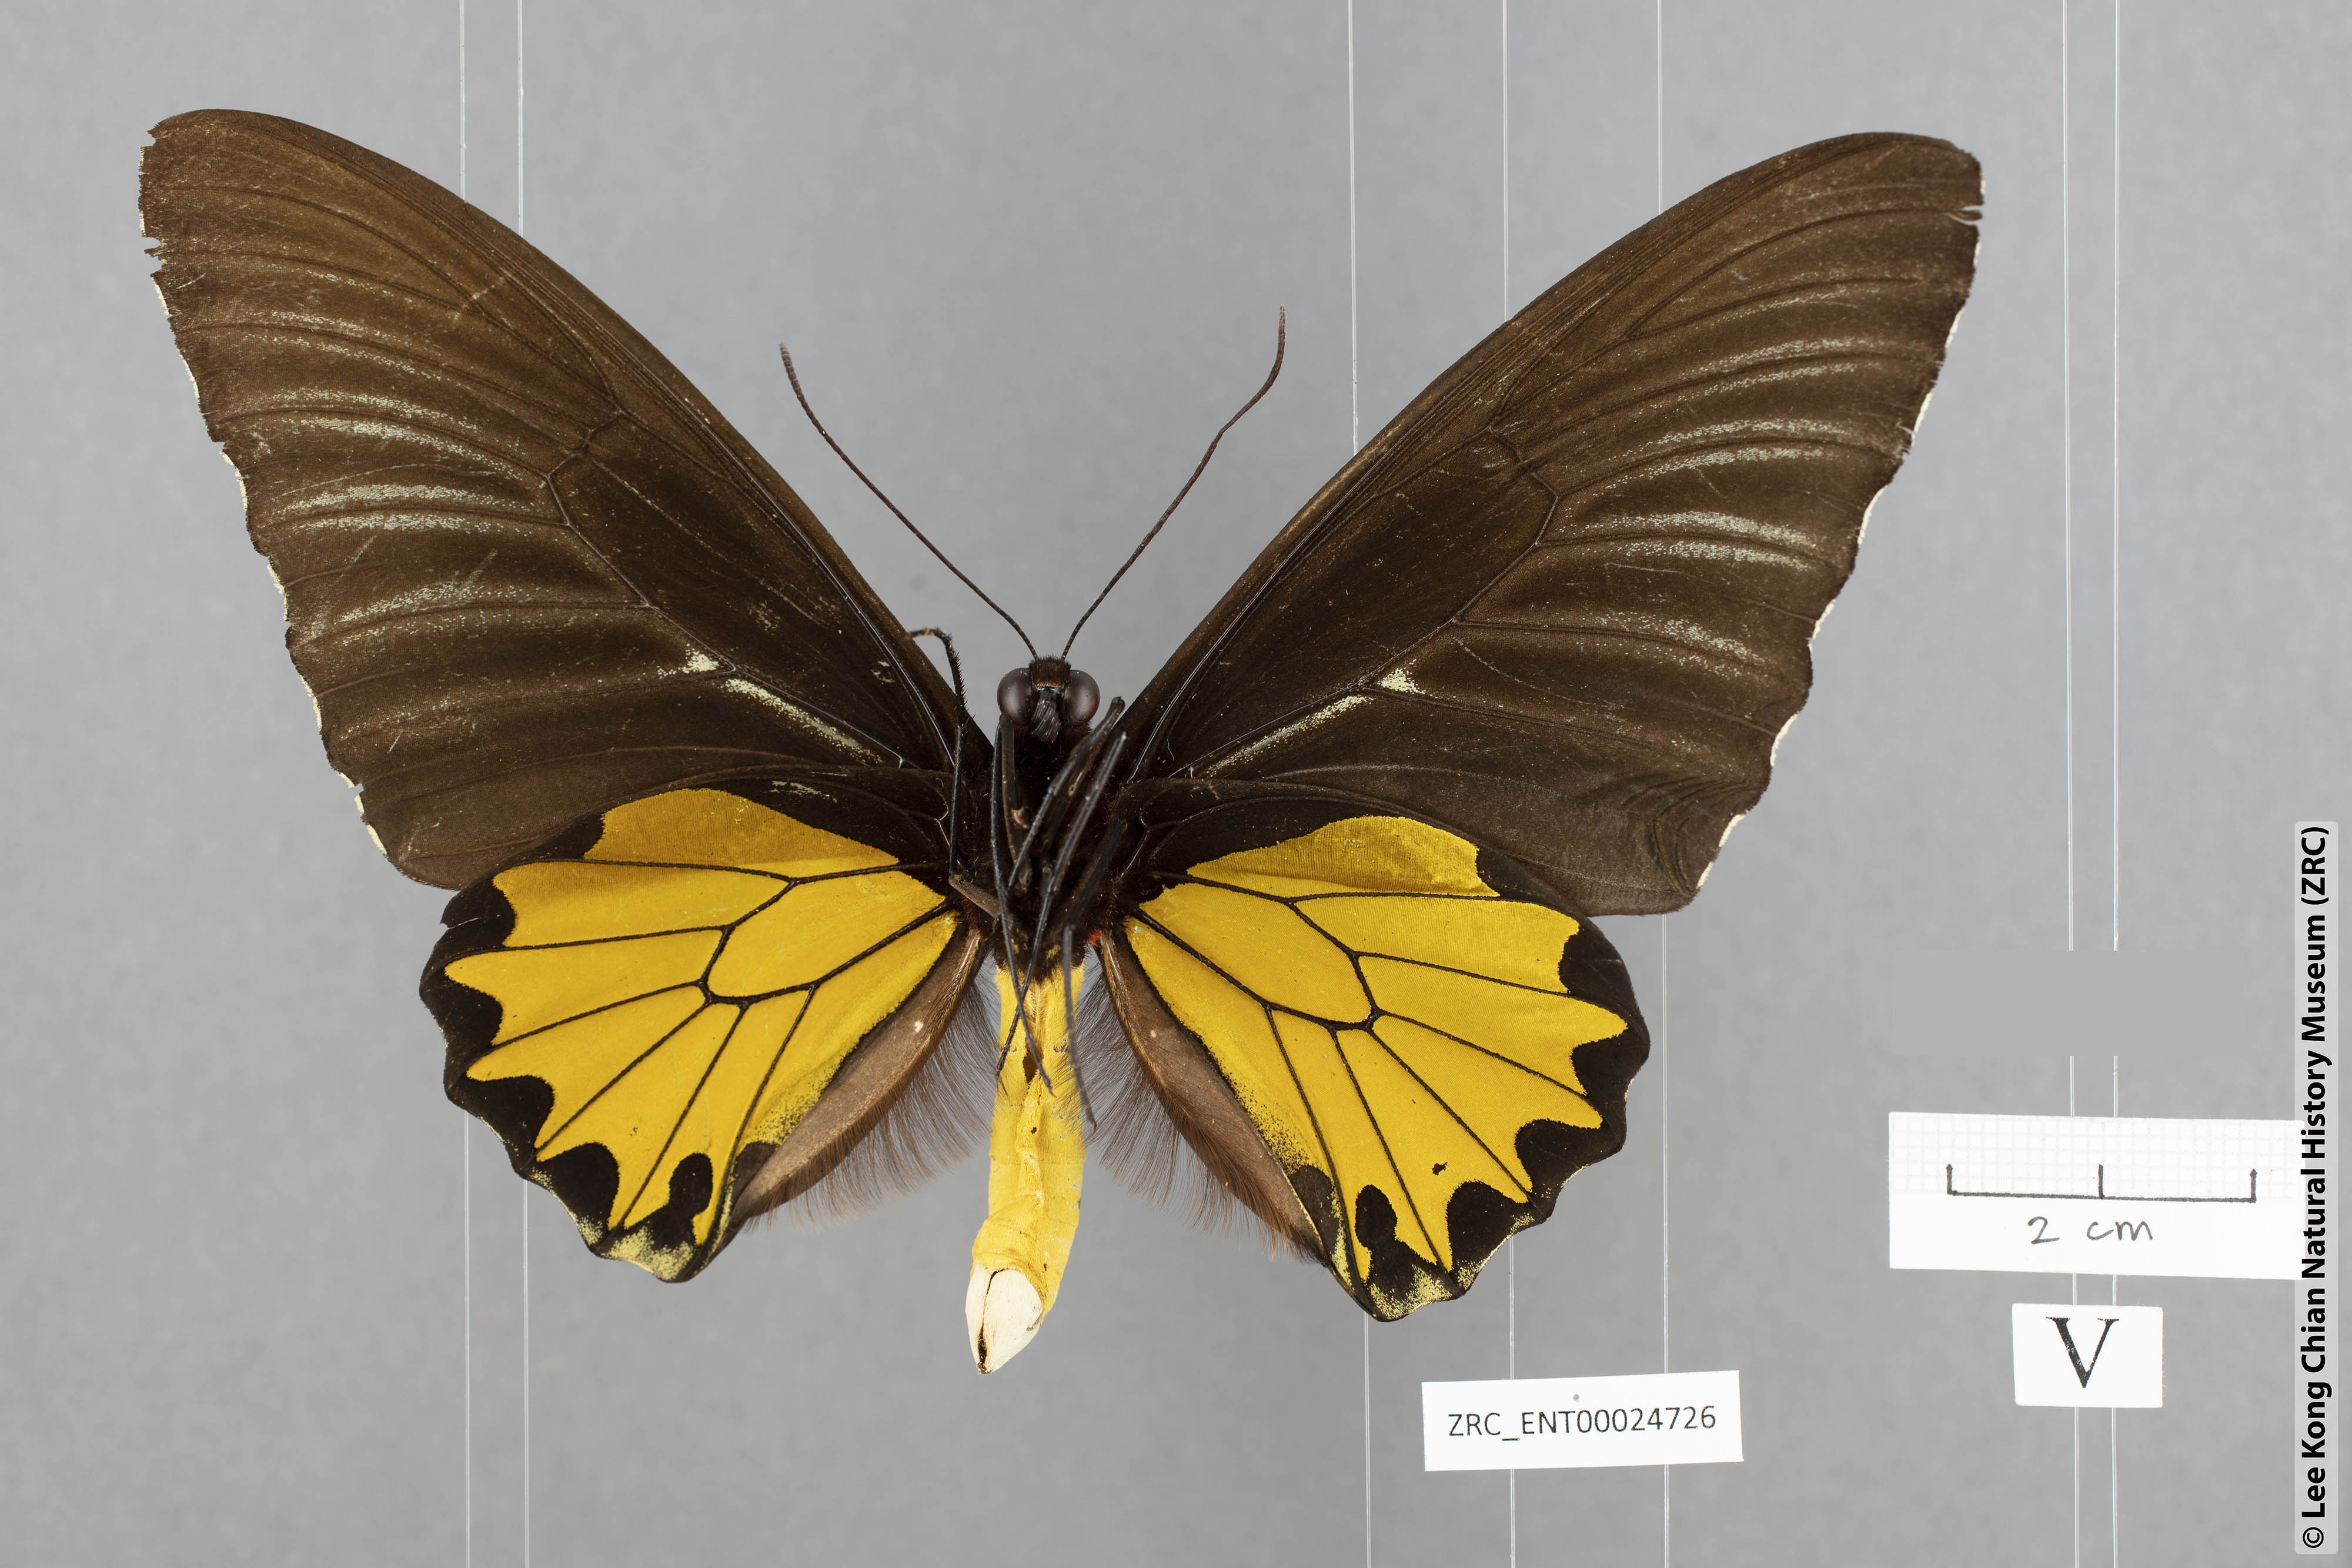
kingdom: Animalia
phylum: Arthropoda
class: Insecta
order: Lepidoptera
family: Papilionidae
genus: Troides
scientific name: Troides helena
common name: Common birdwing
